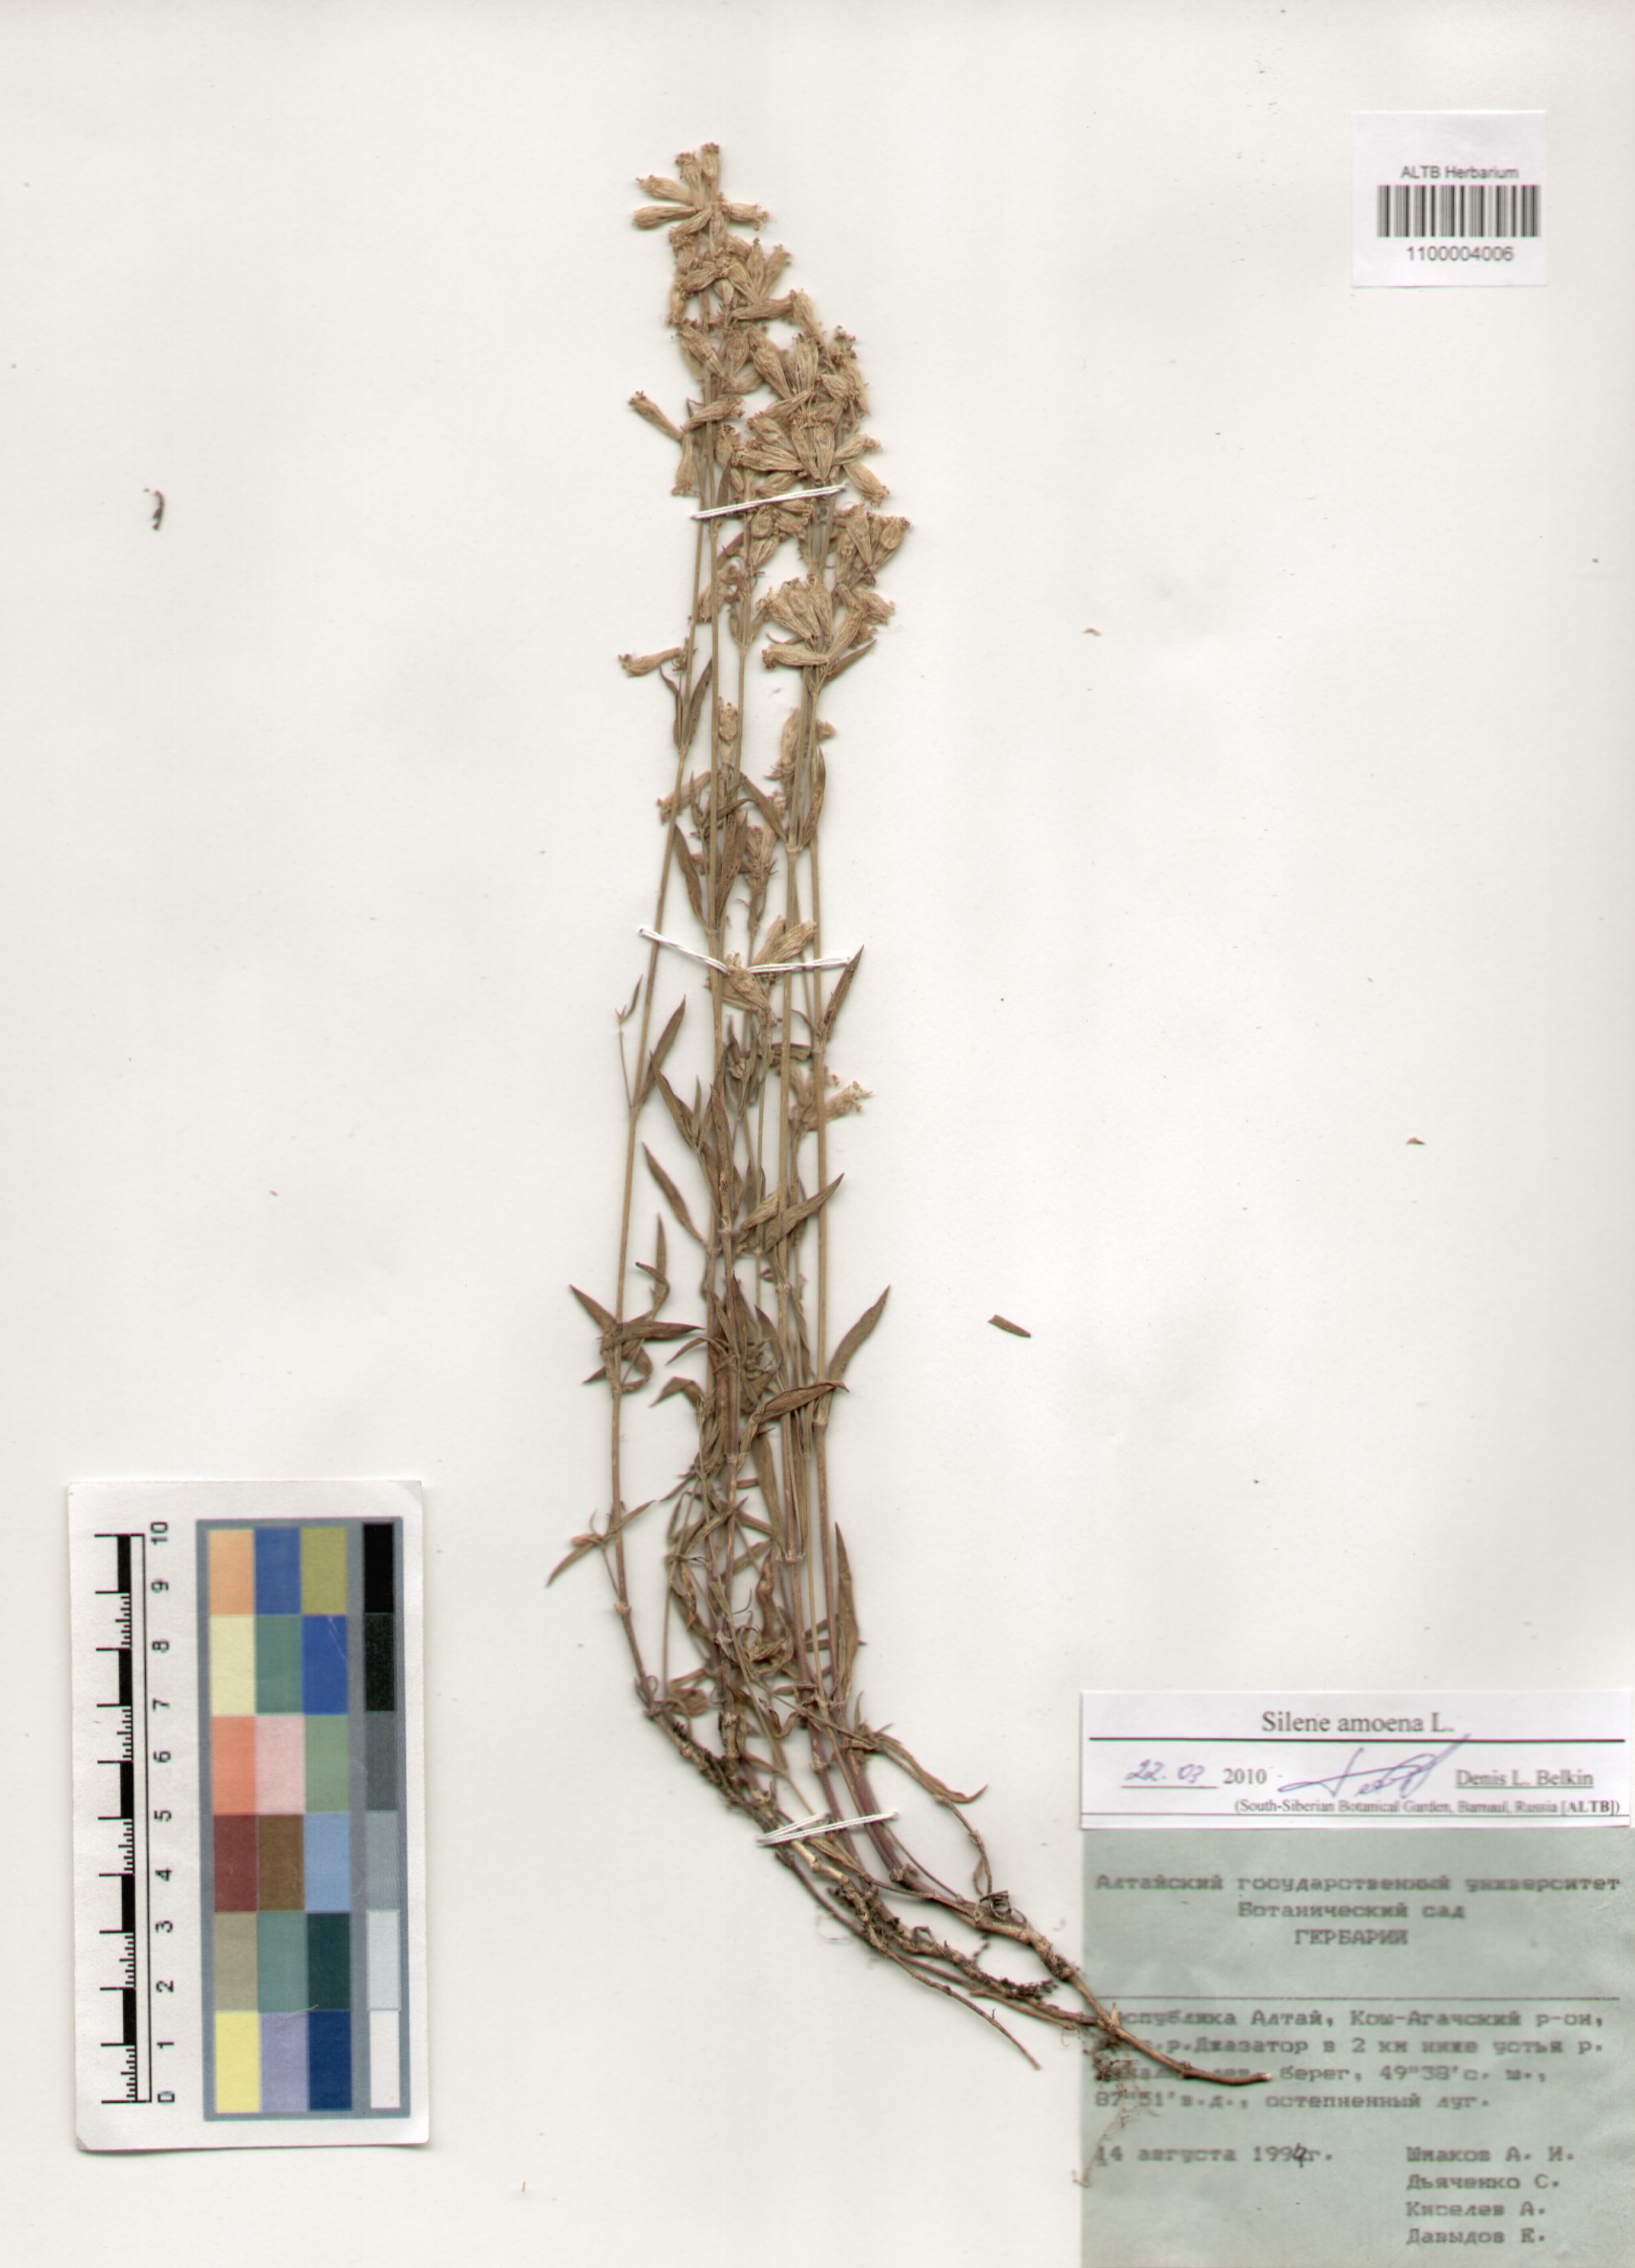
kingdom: Plantae
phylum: Tracheophyta
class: Magnoliopsida
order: Caryophyllales
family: Caryophyllaceae
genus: Silene
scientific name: Silene amoena
